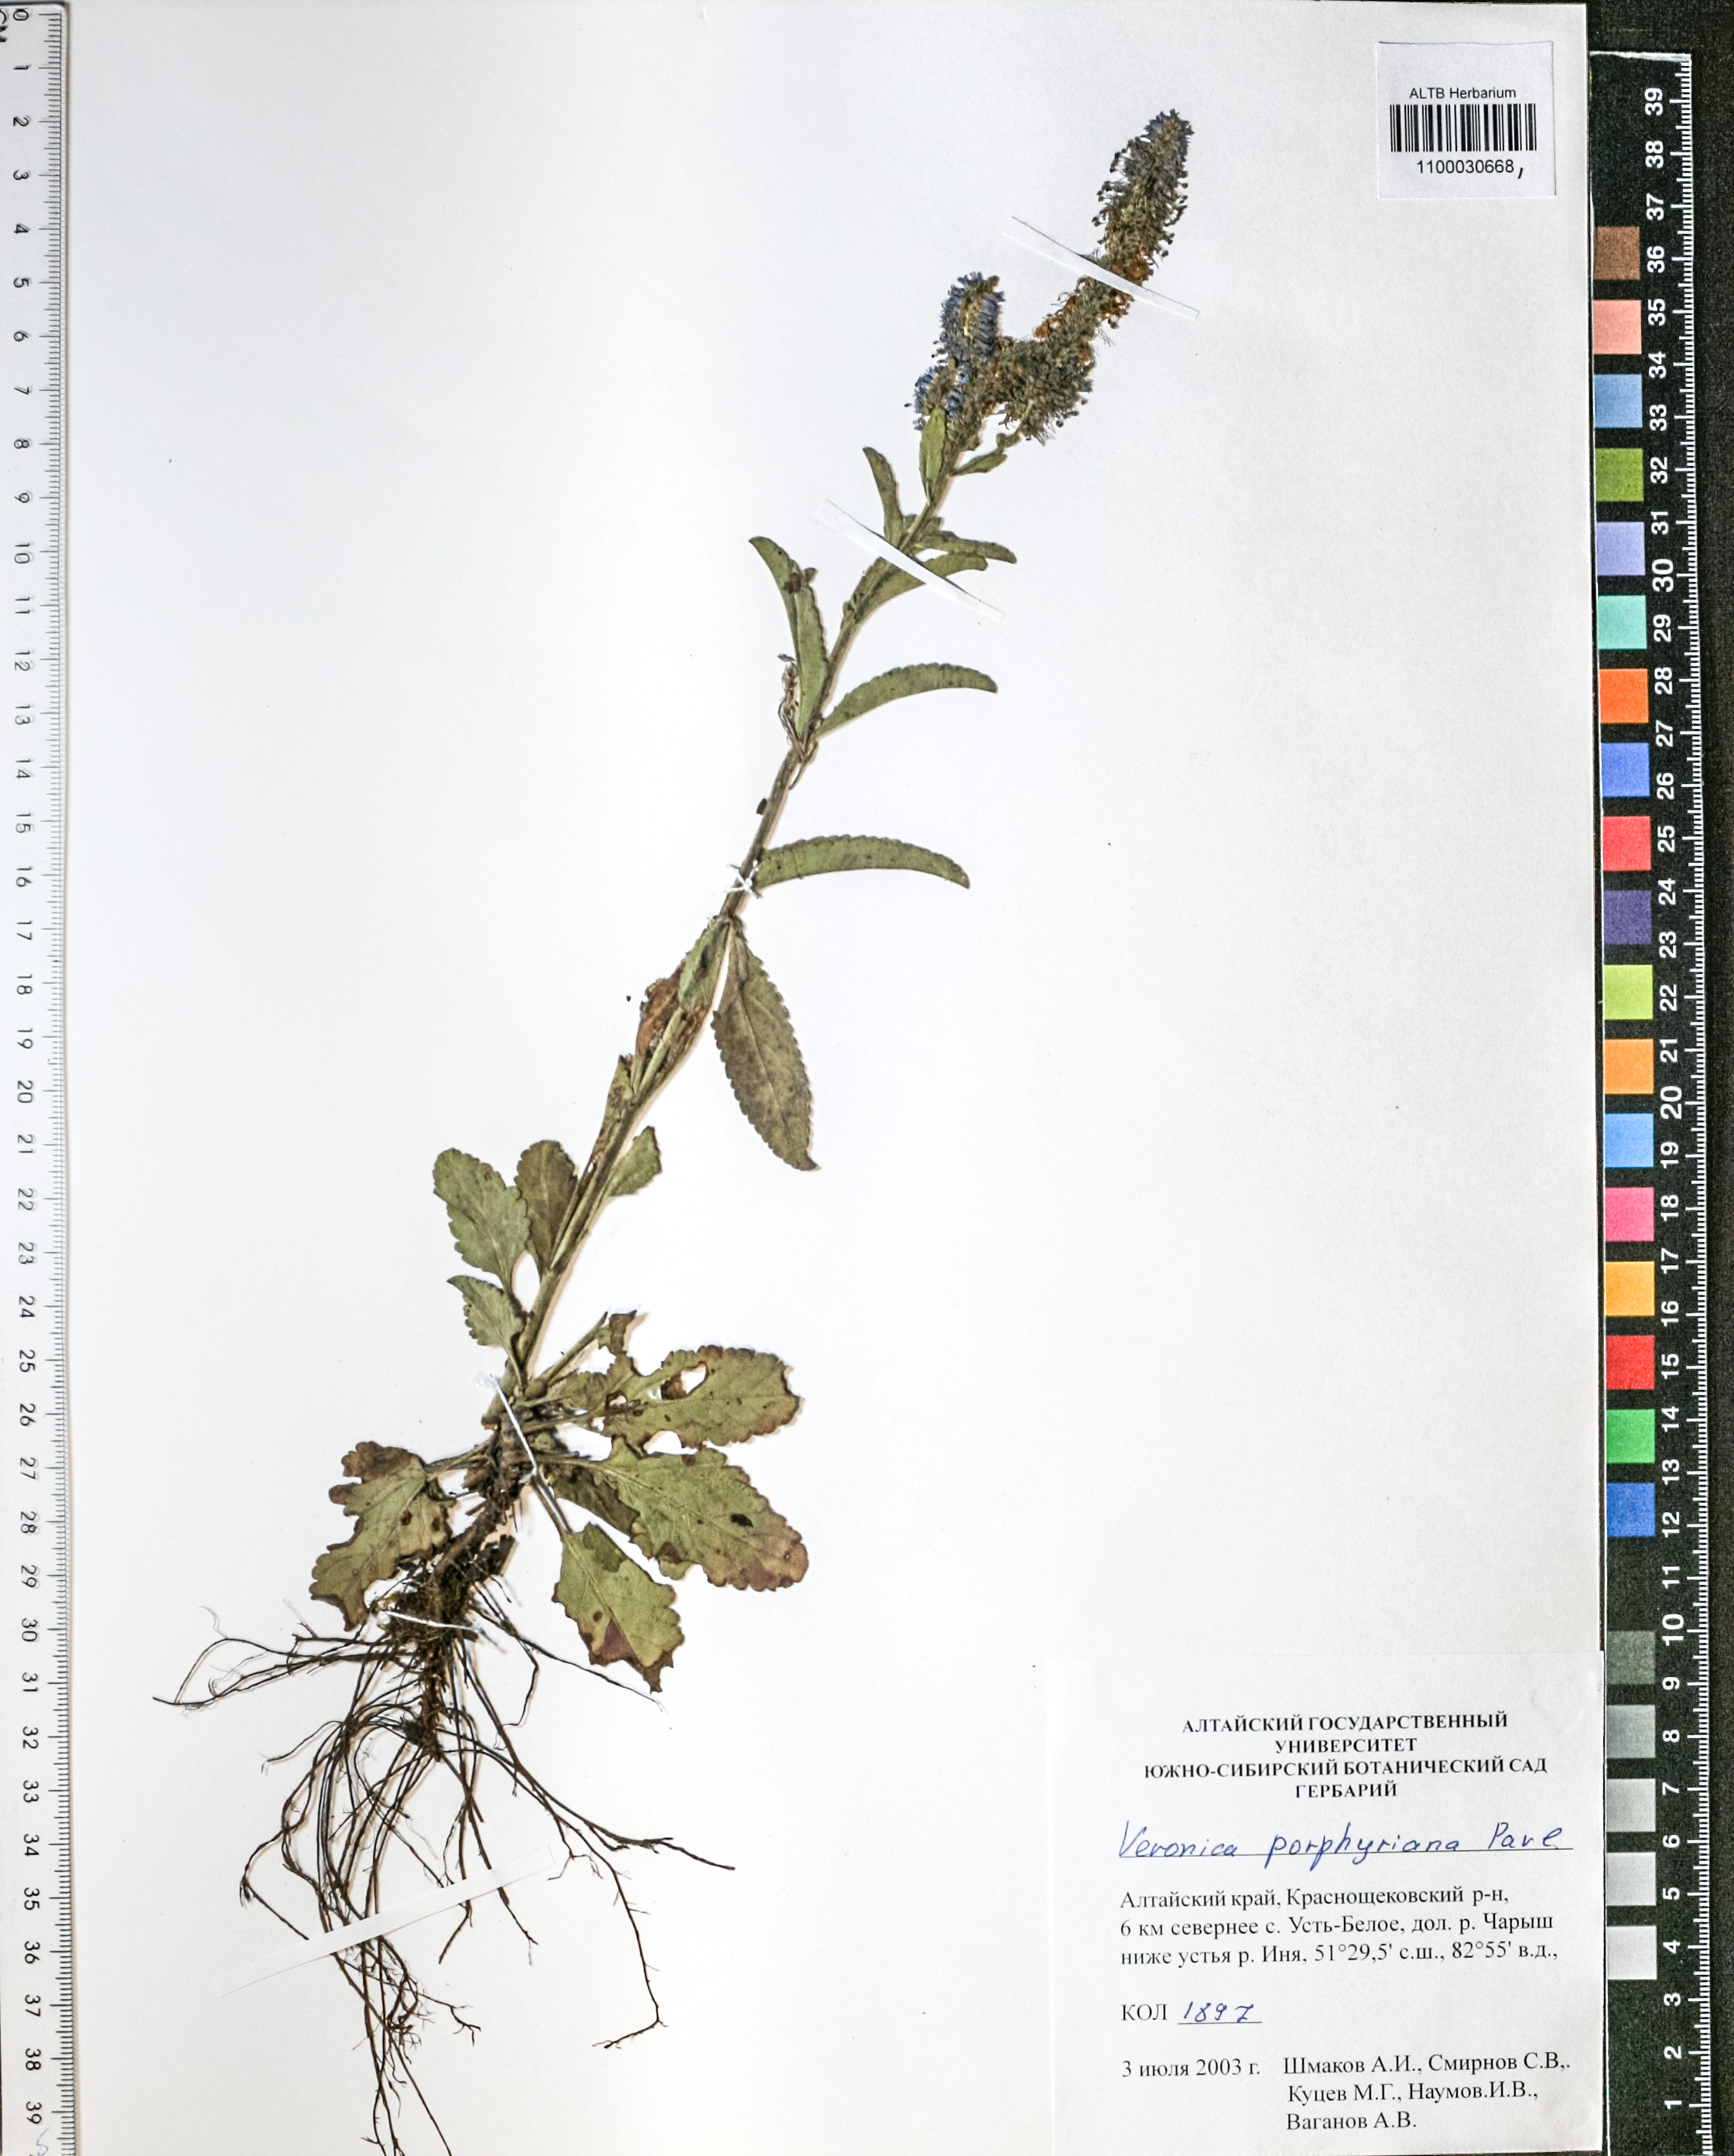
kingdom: Plantae
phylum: Tracheophyta
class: Magnoliopsida
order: Lamiales
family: Plantaginaceae
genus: Veronica
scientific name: Veronica porphyriana
